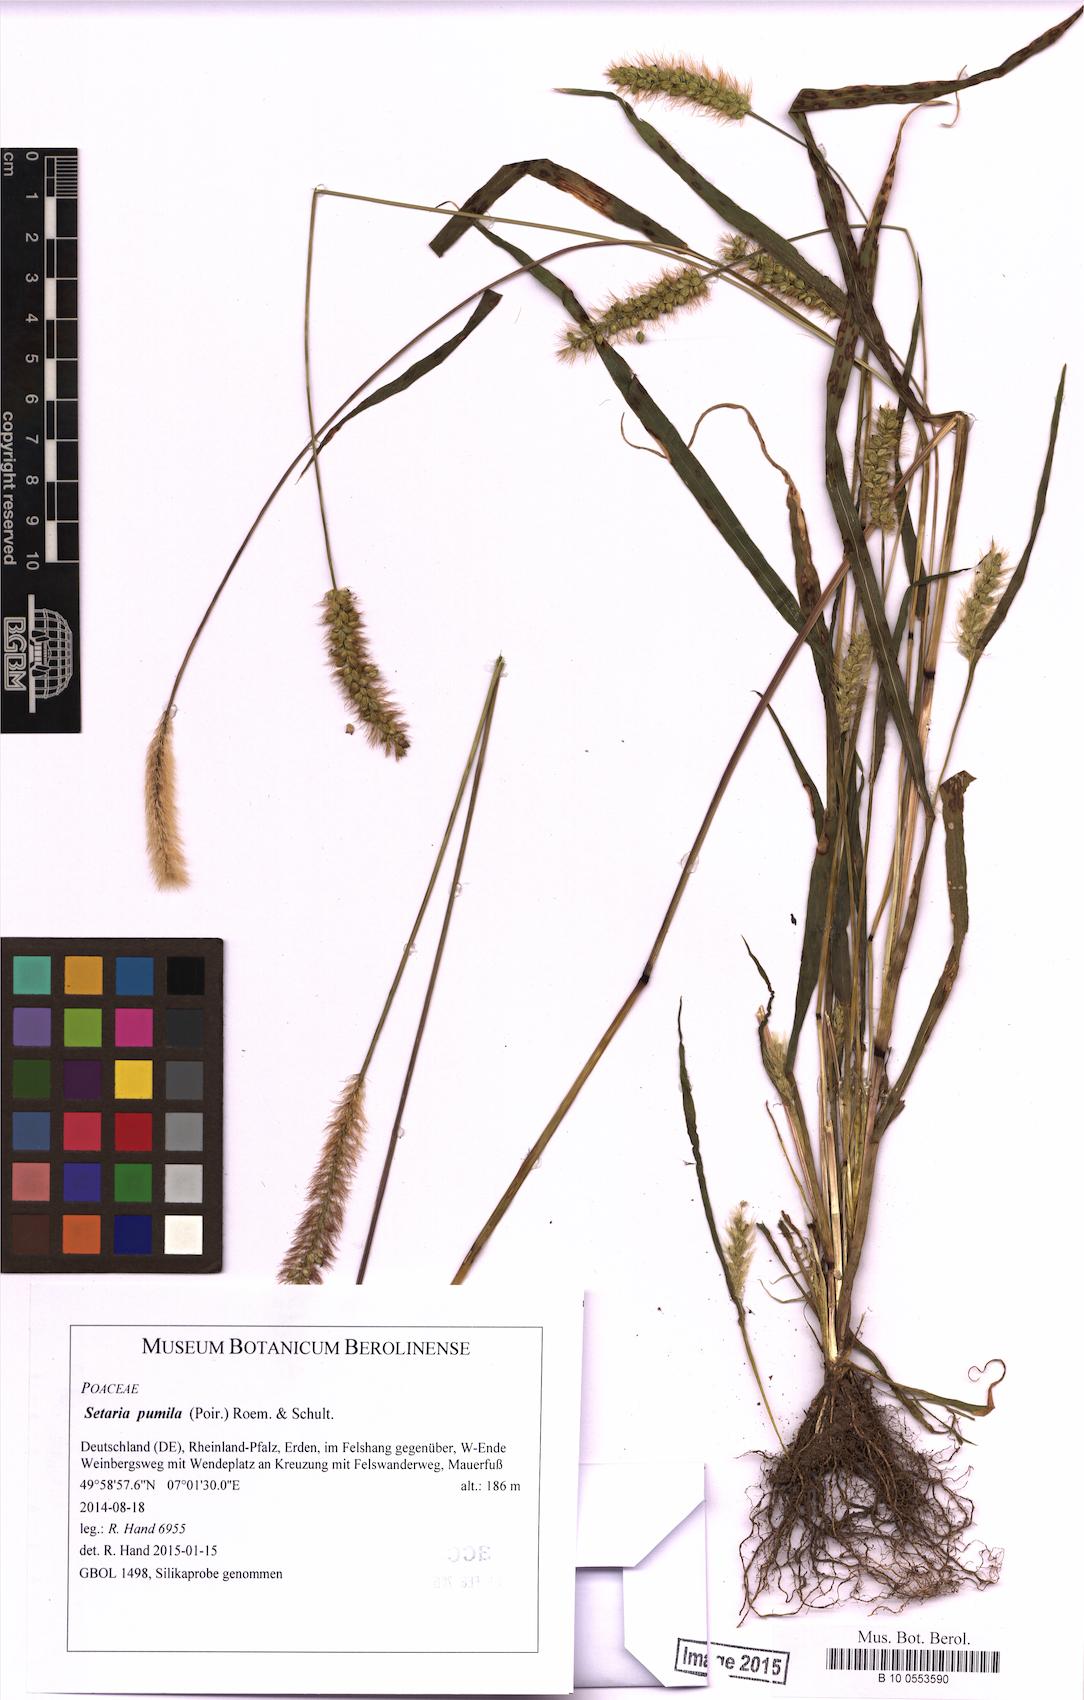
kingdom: Plantae
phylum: Tracheophyta
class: Liliopsida
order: Poales
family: Poaceae
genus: Setaria
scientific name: Setaria pumila
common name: Yellow bristle-grass
